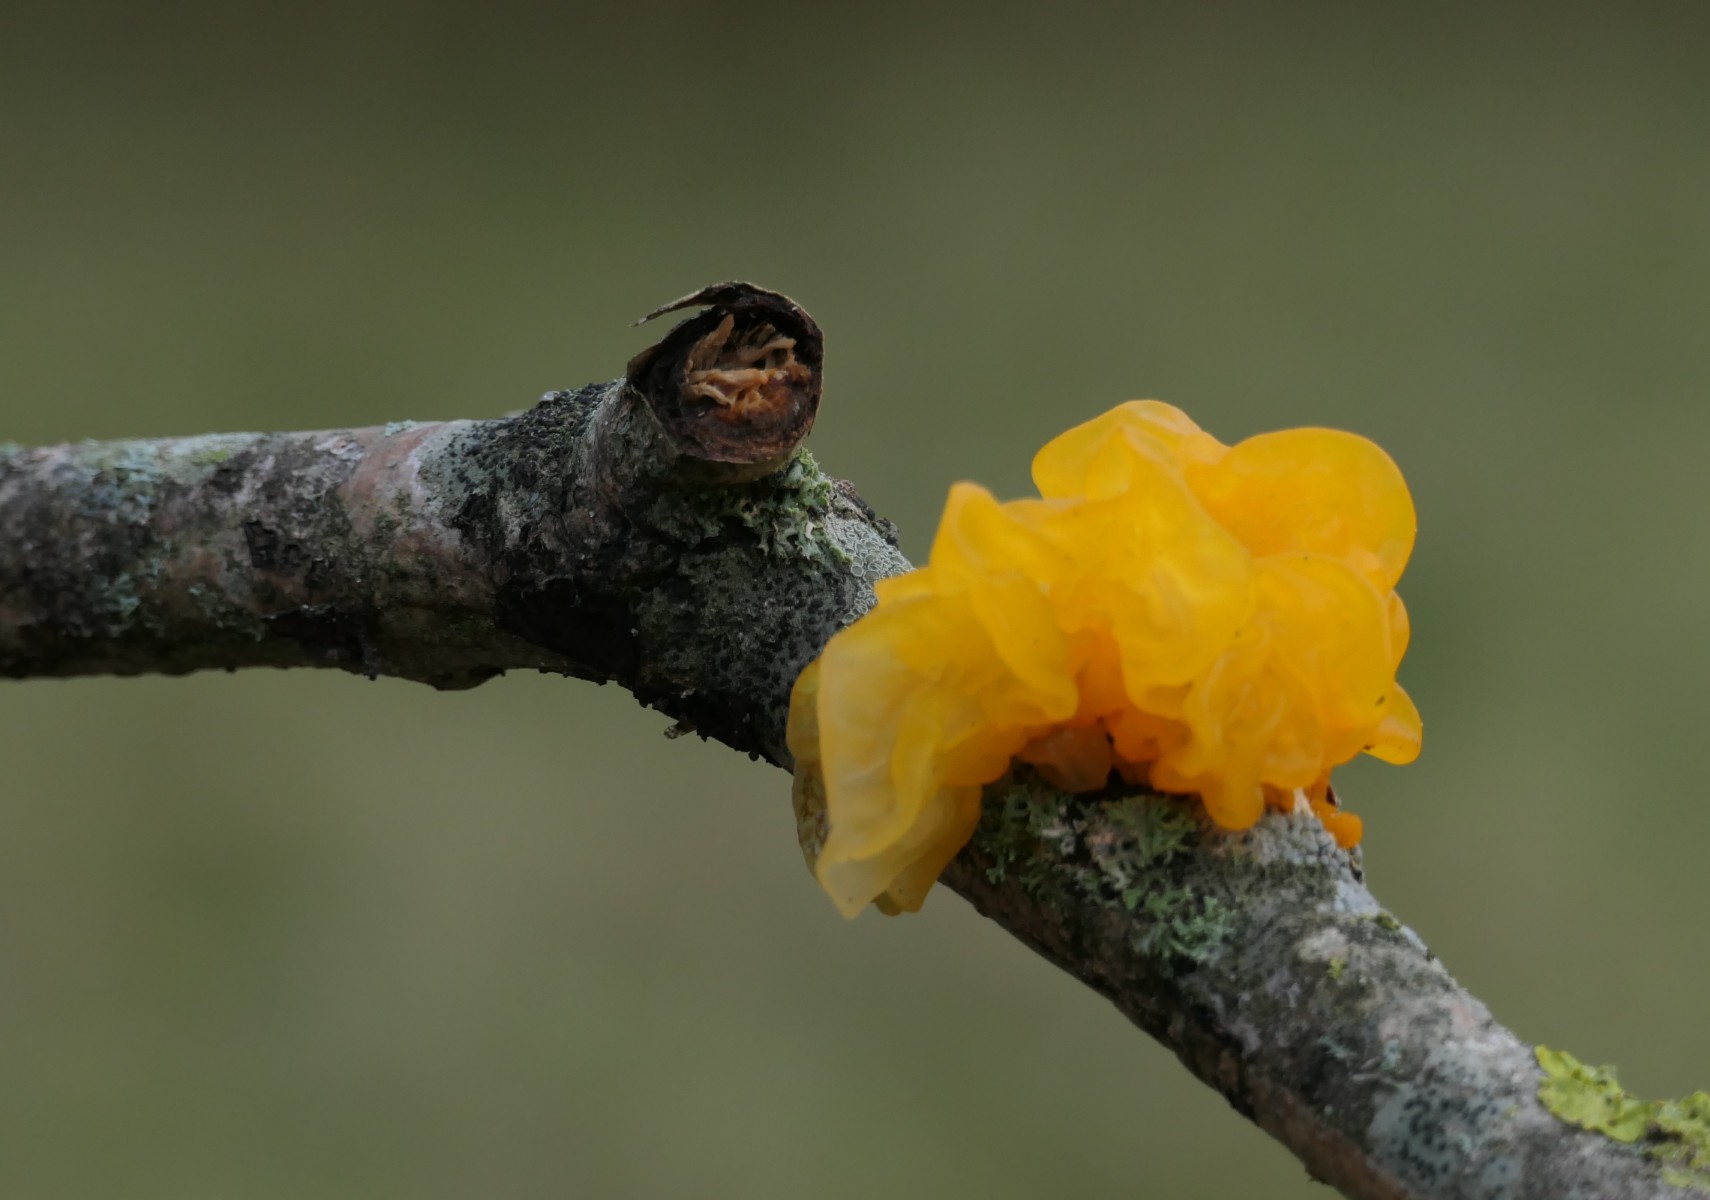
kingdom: Fungi
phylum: Basidiomycota
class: Tremellomycetes
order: Tremellales
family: Tremellaceae
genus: Tremella
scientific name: Tremella mesenterica
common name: gul bævresvamp
